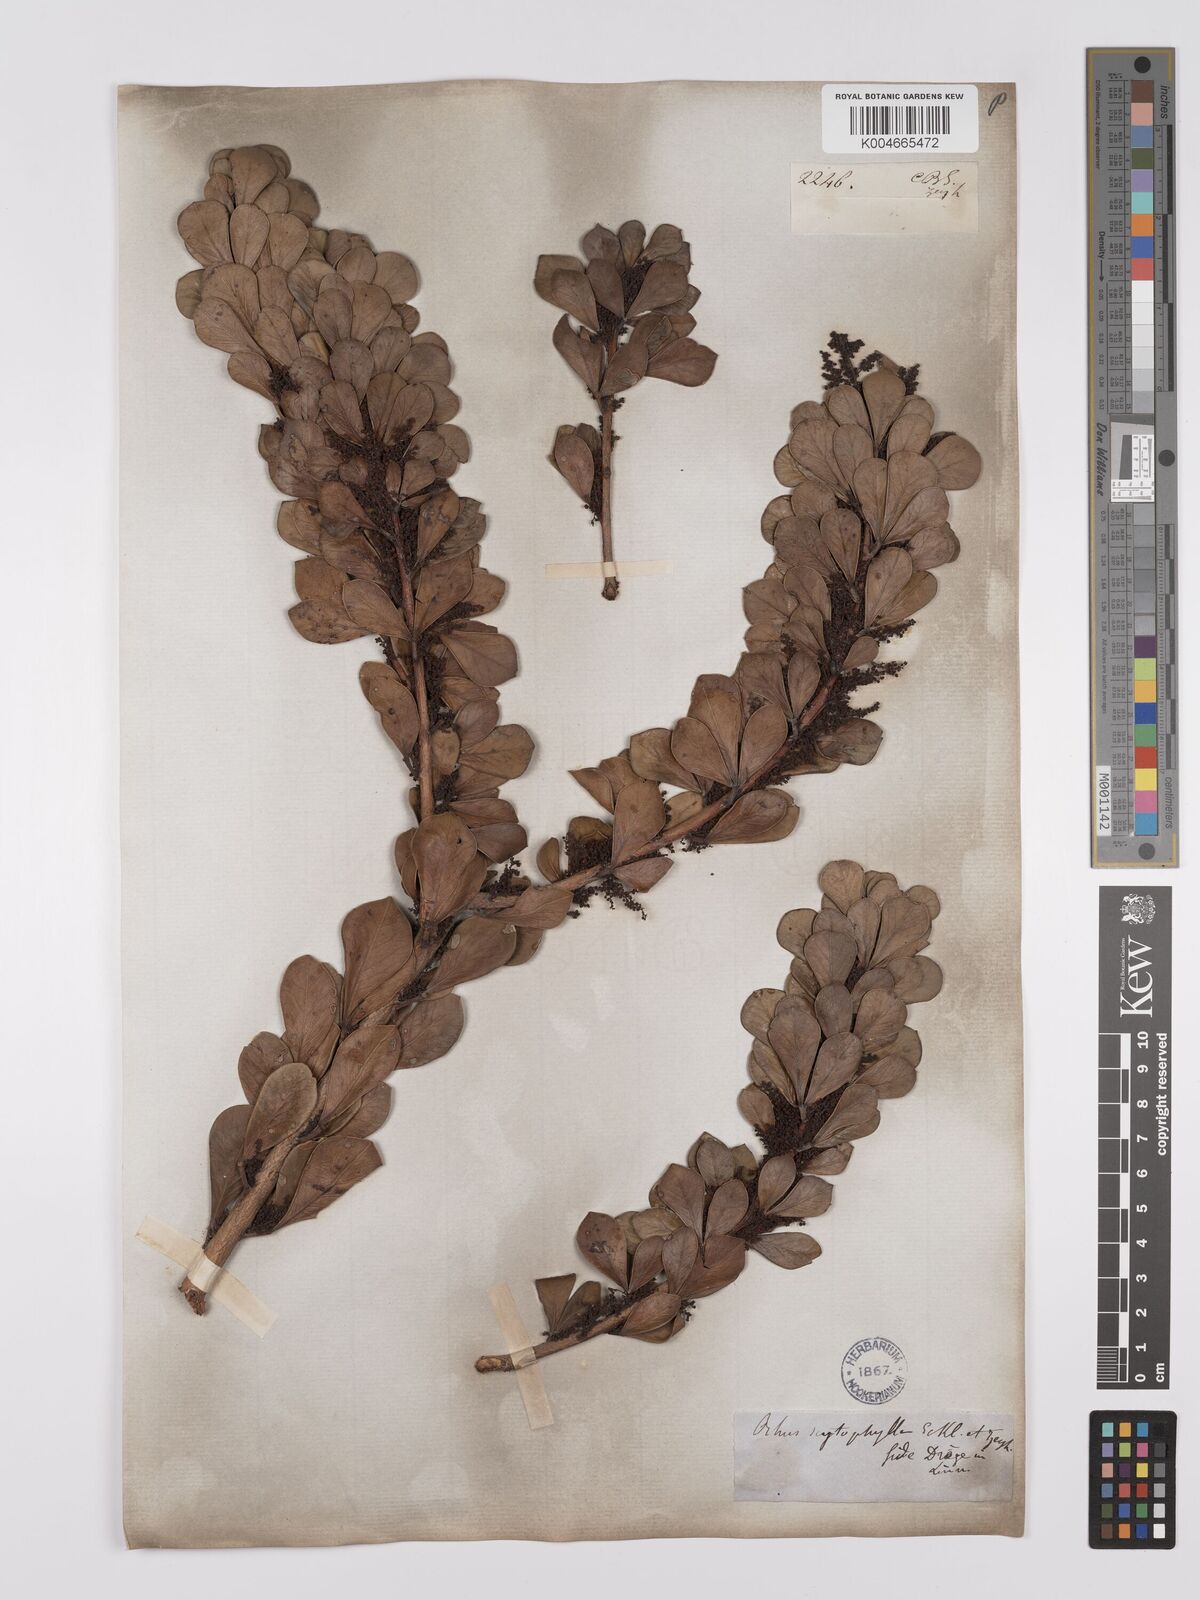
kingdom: Plantae
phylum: Tracheophyta
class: Magnoliopsida
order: Sapindales
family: Anacardiaceae
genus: Searsia
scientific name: Searsia scytophylla
